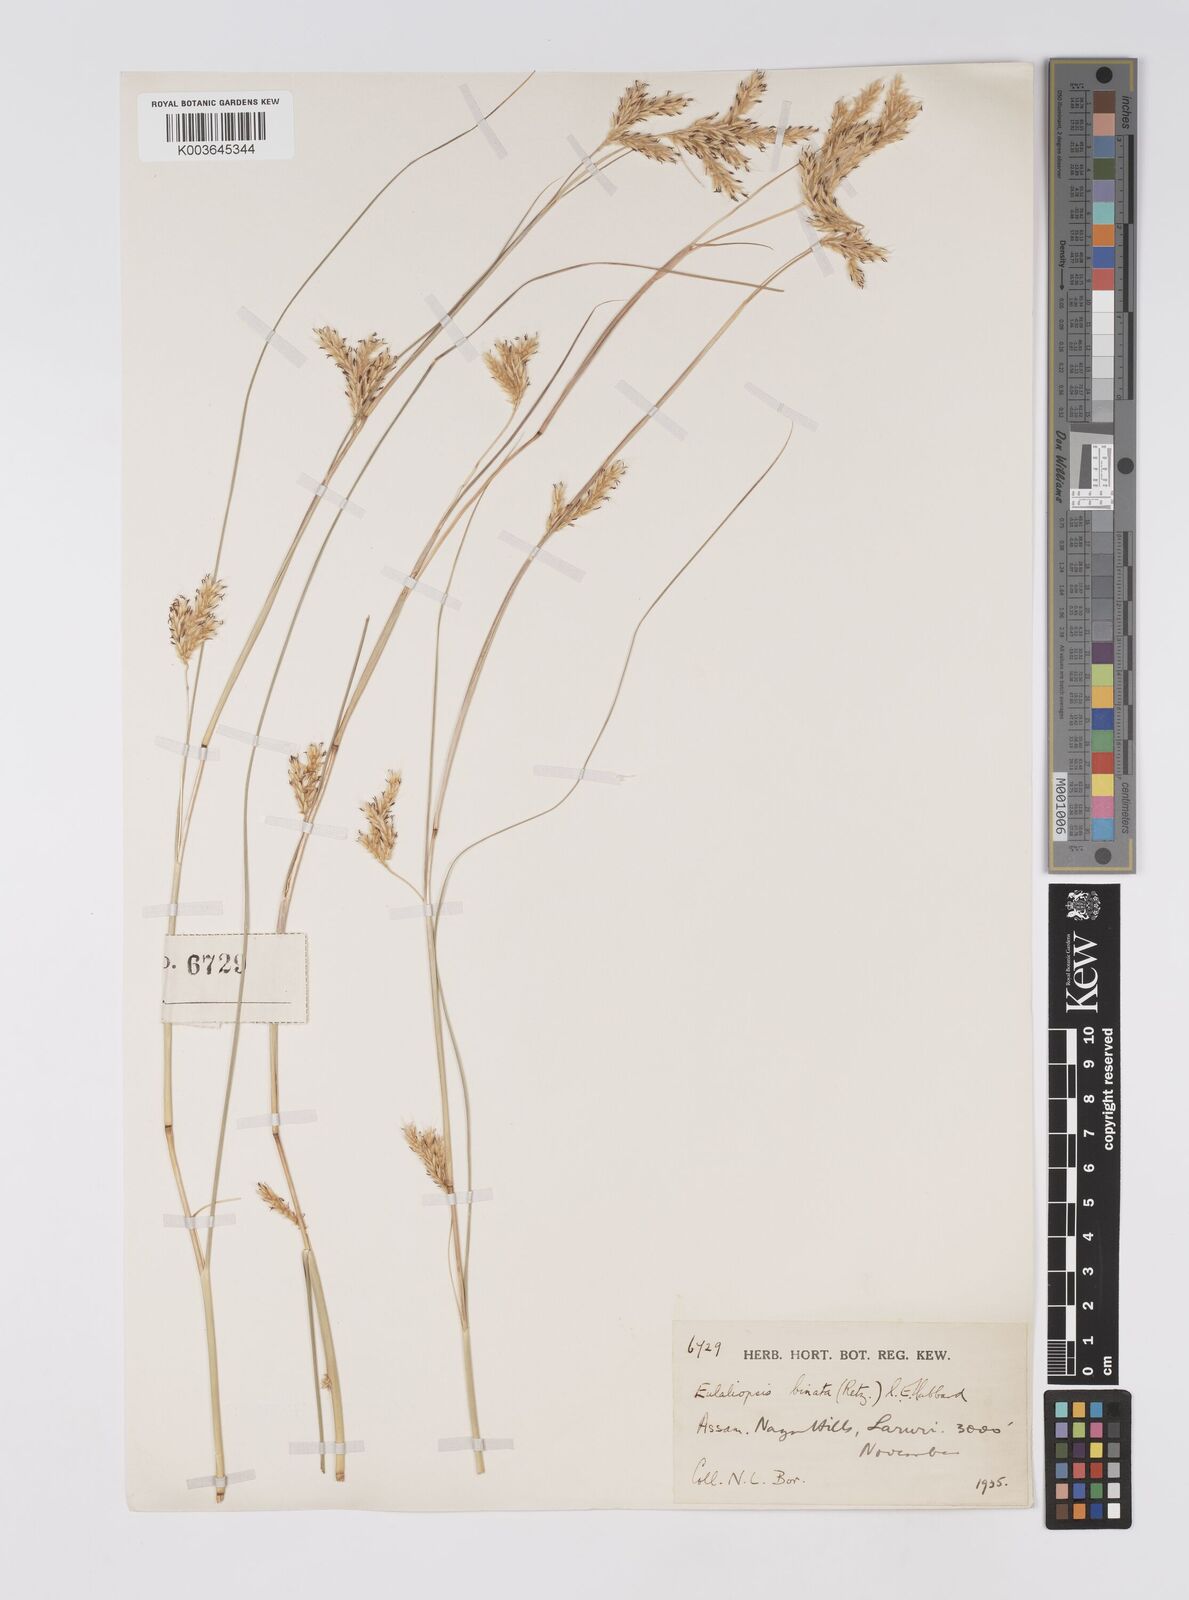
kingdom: Plantae
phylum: Tracheophyta
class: Liliopsida
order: Poales
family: Poaceae
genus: Eulaliopsis
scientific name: Eulaliopsis binata
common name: Baib grass
